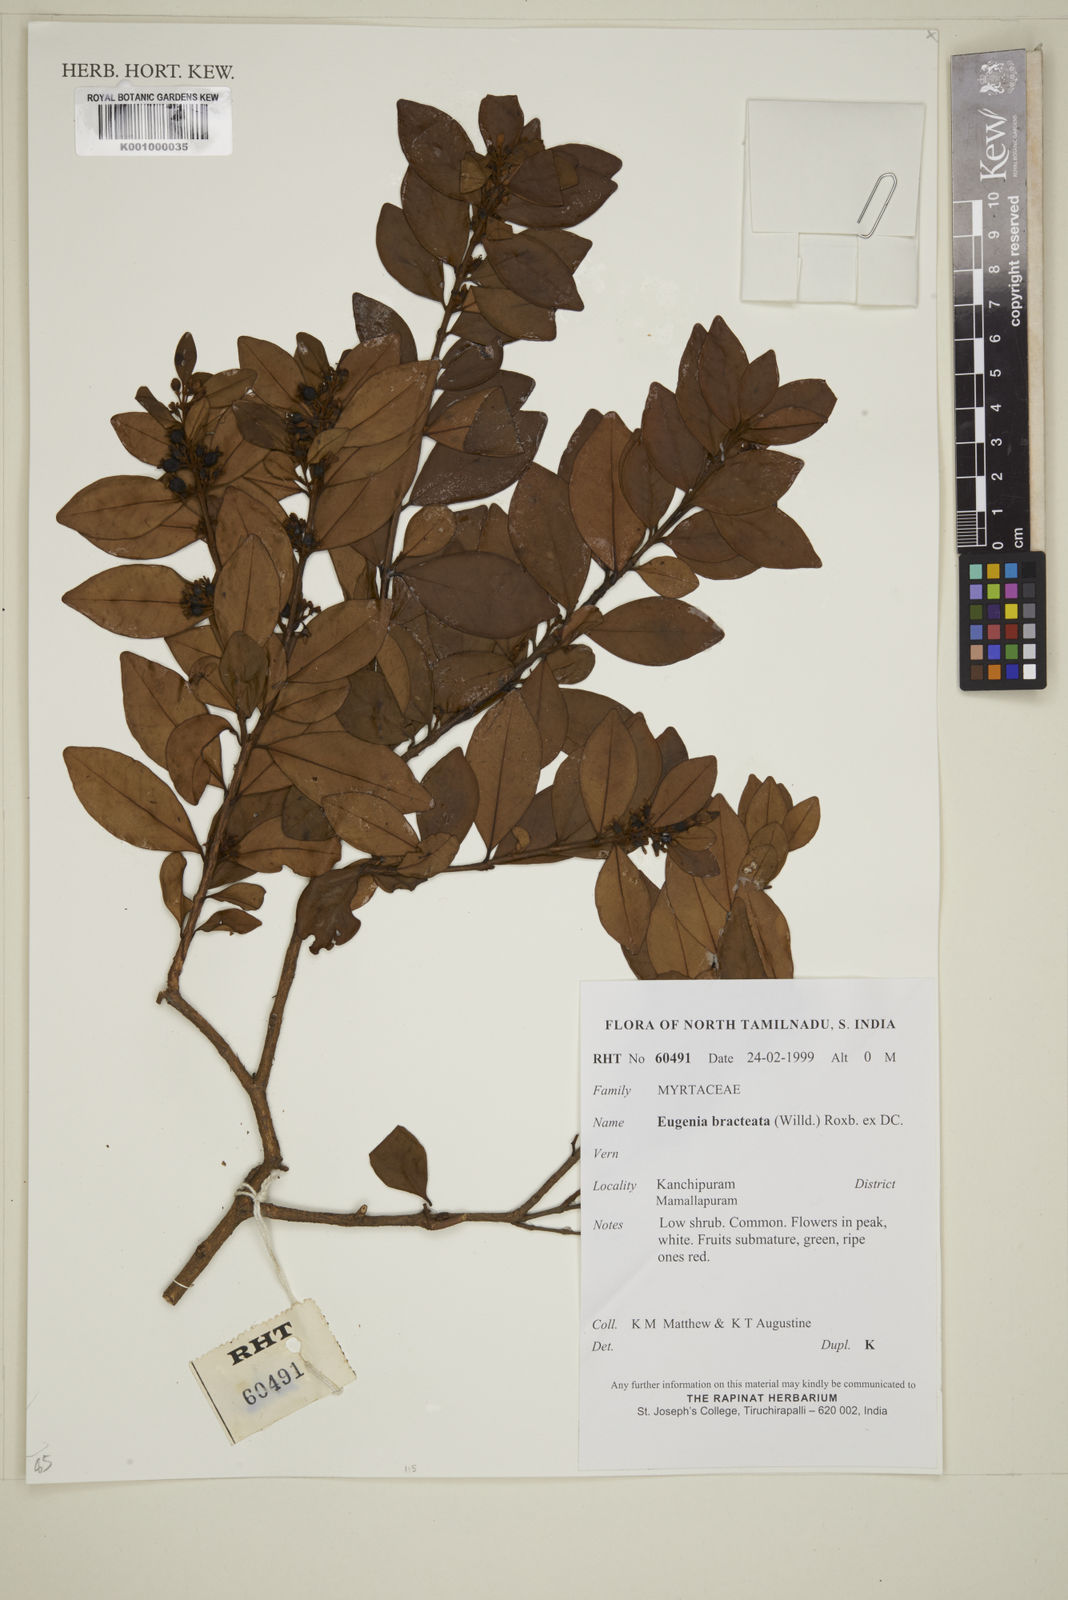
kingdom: Plantae
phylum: Tracheophyta
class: Magnoliopsida
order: Myrtales
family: Myrtaceae
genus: Myrcia
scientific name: Myrcia bracteata
